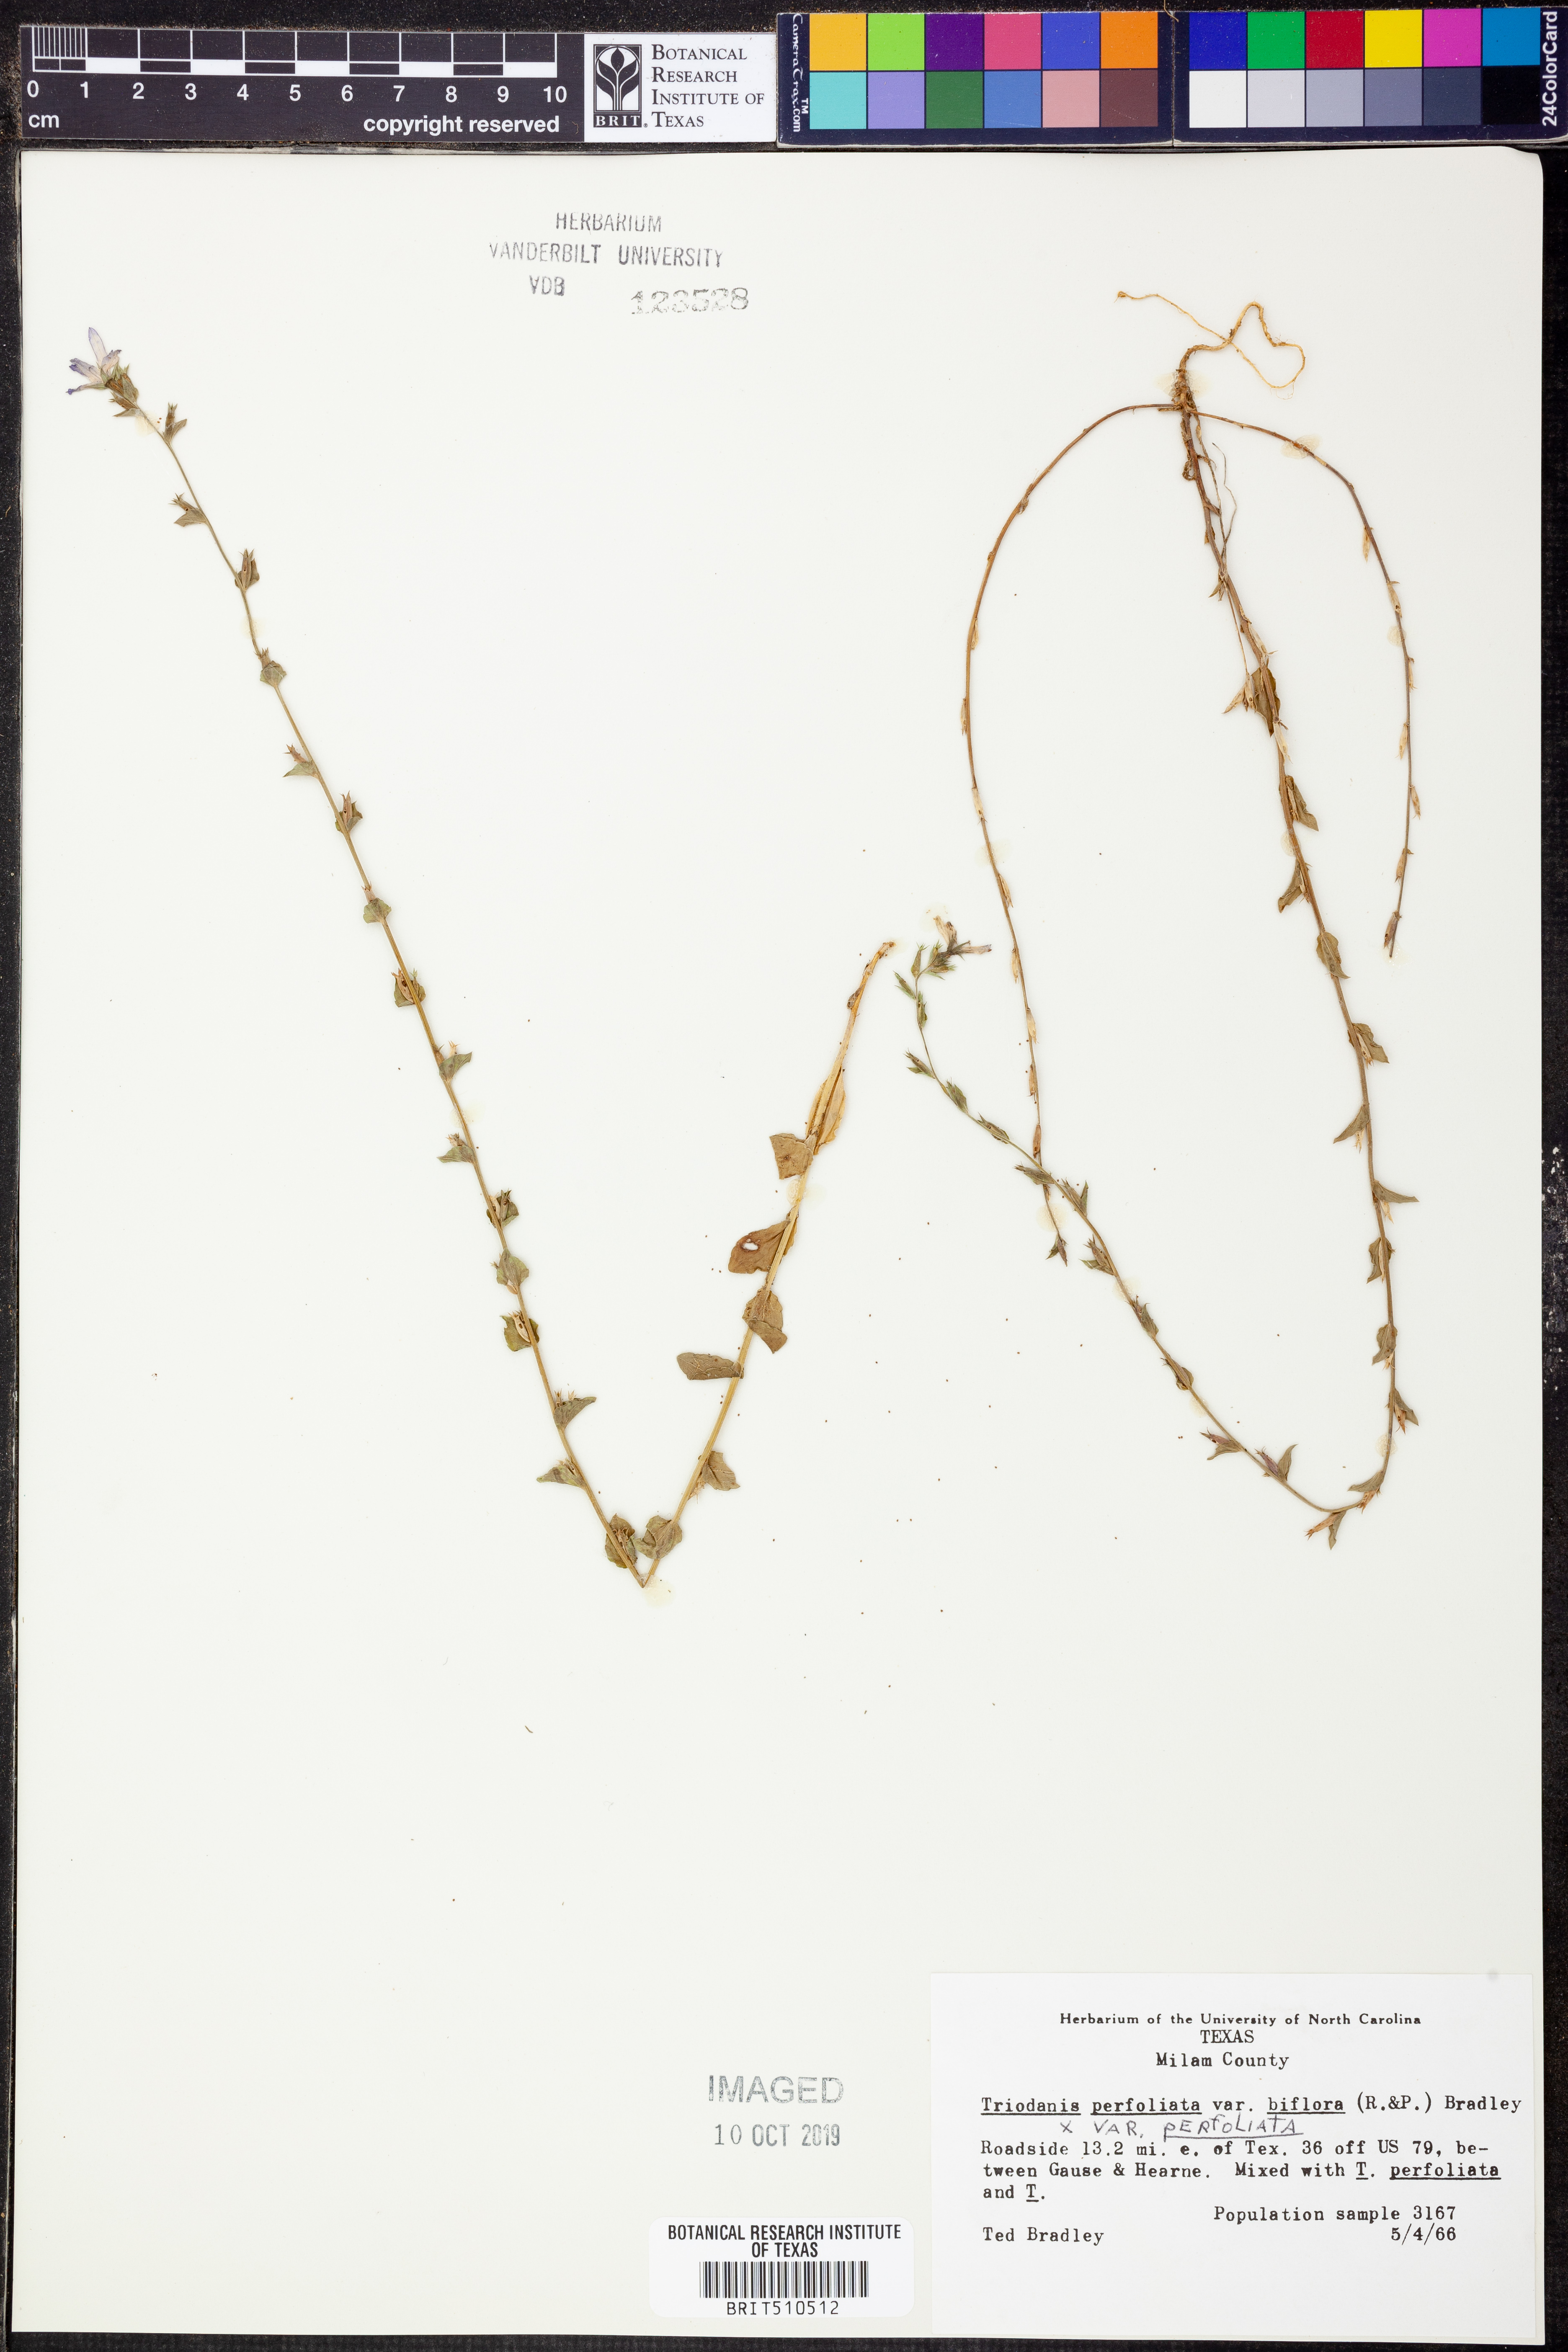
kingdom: Plantae
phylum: Tracheophyta
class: Magnoliopsida
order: Asterales
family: Campanulaceae
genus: Triodanis
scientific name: Triodanis perfoliata
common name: Clasping venus' looking-glass
